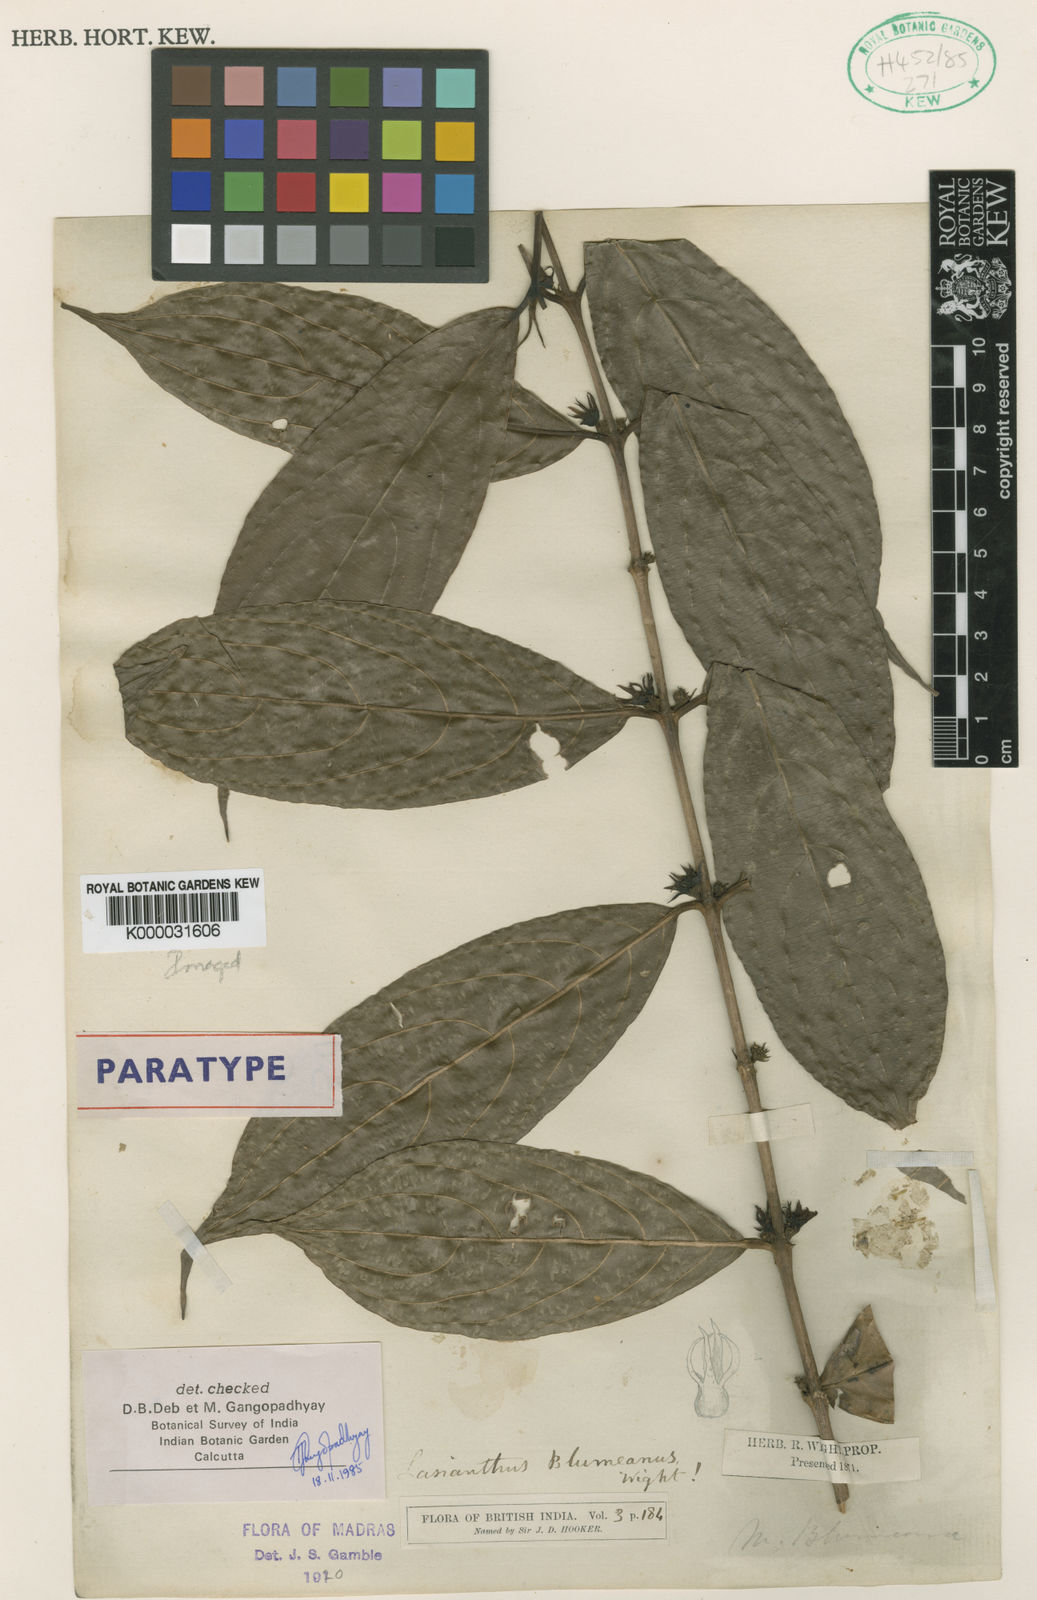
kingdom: Plantae
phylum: Tracheophyta
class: Magnoliopsida
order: Gentianales
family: Rubiaceae
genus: Lasianthus
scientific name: Lasianthus blumeanus
